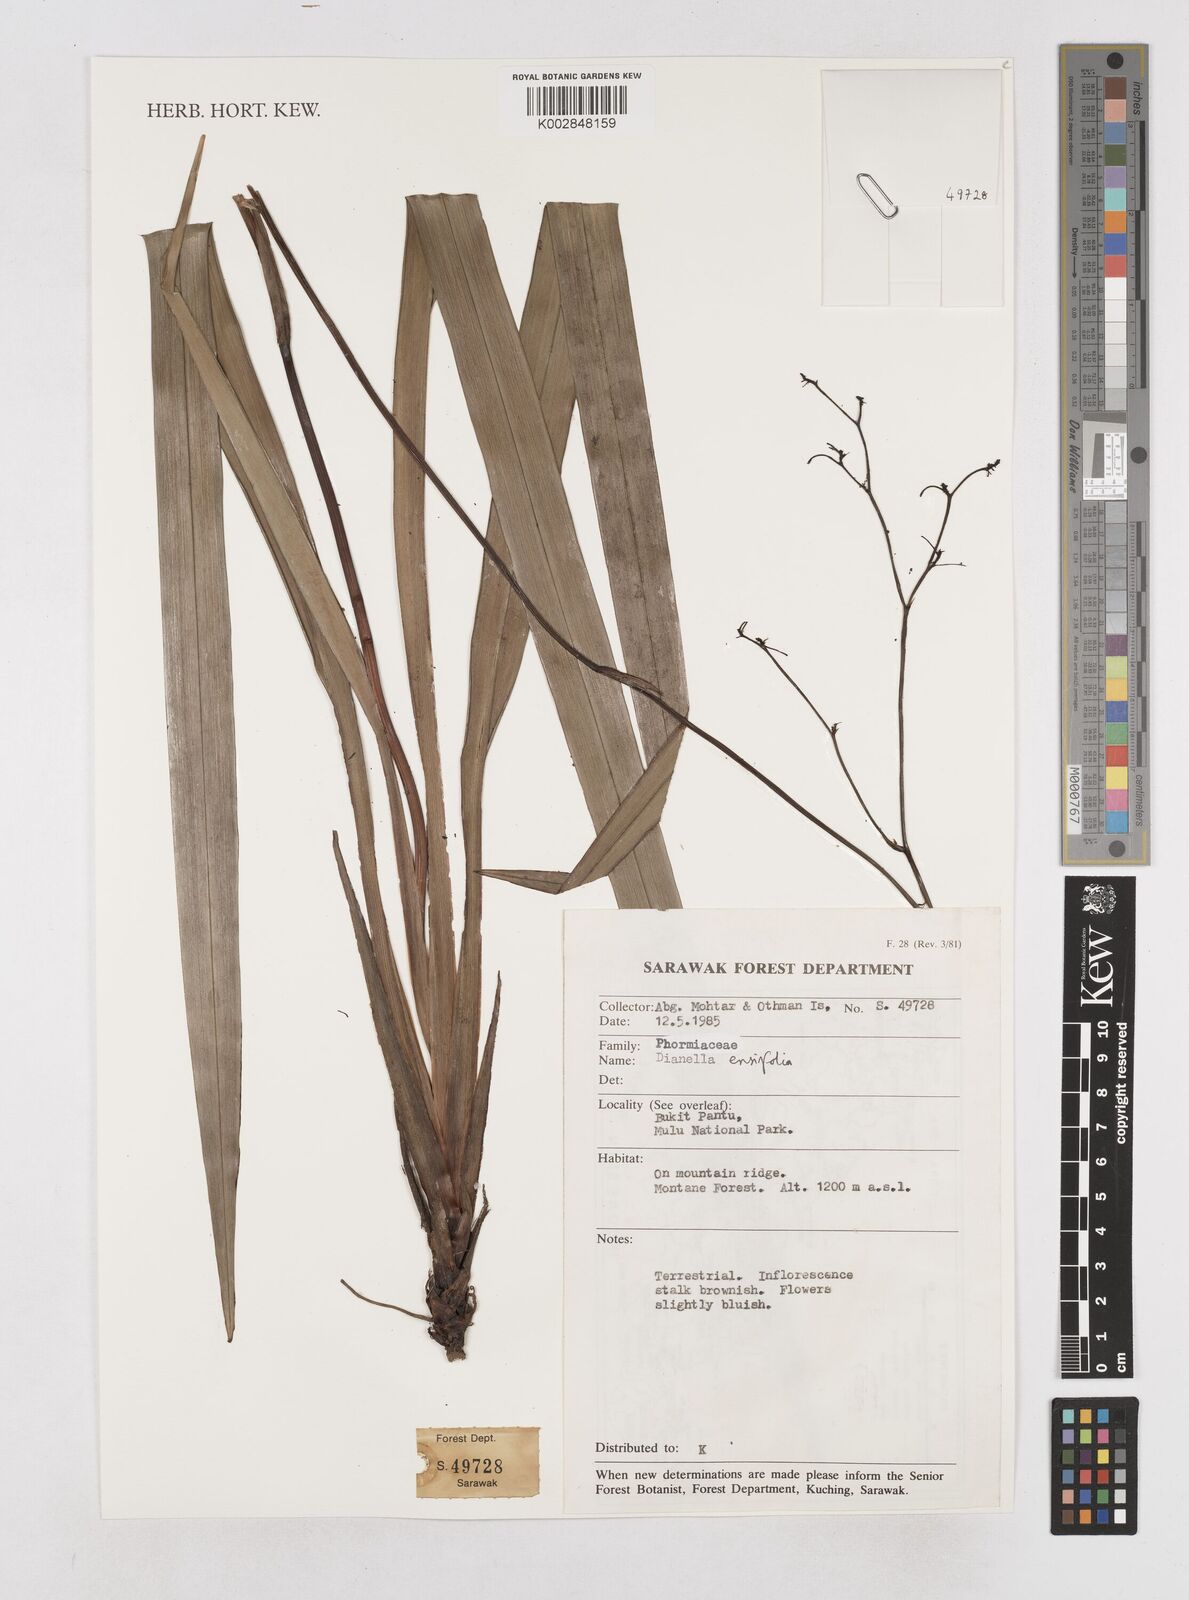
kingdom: Plantae
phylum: Tracheophyta
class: Liliopsida
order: Asparagales
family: Asphodelaceae
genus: Dianella
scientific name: Dianella ensifolia
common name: New zealand lilyplant
